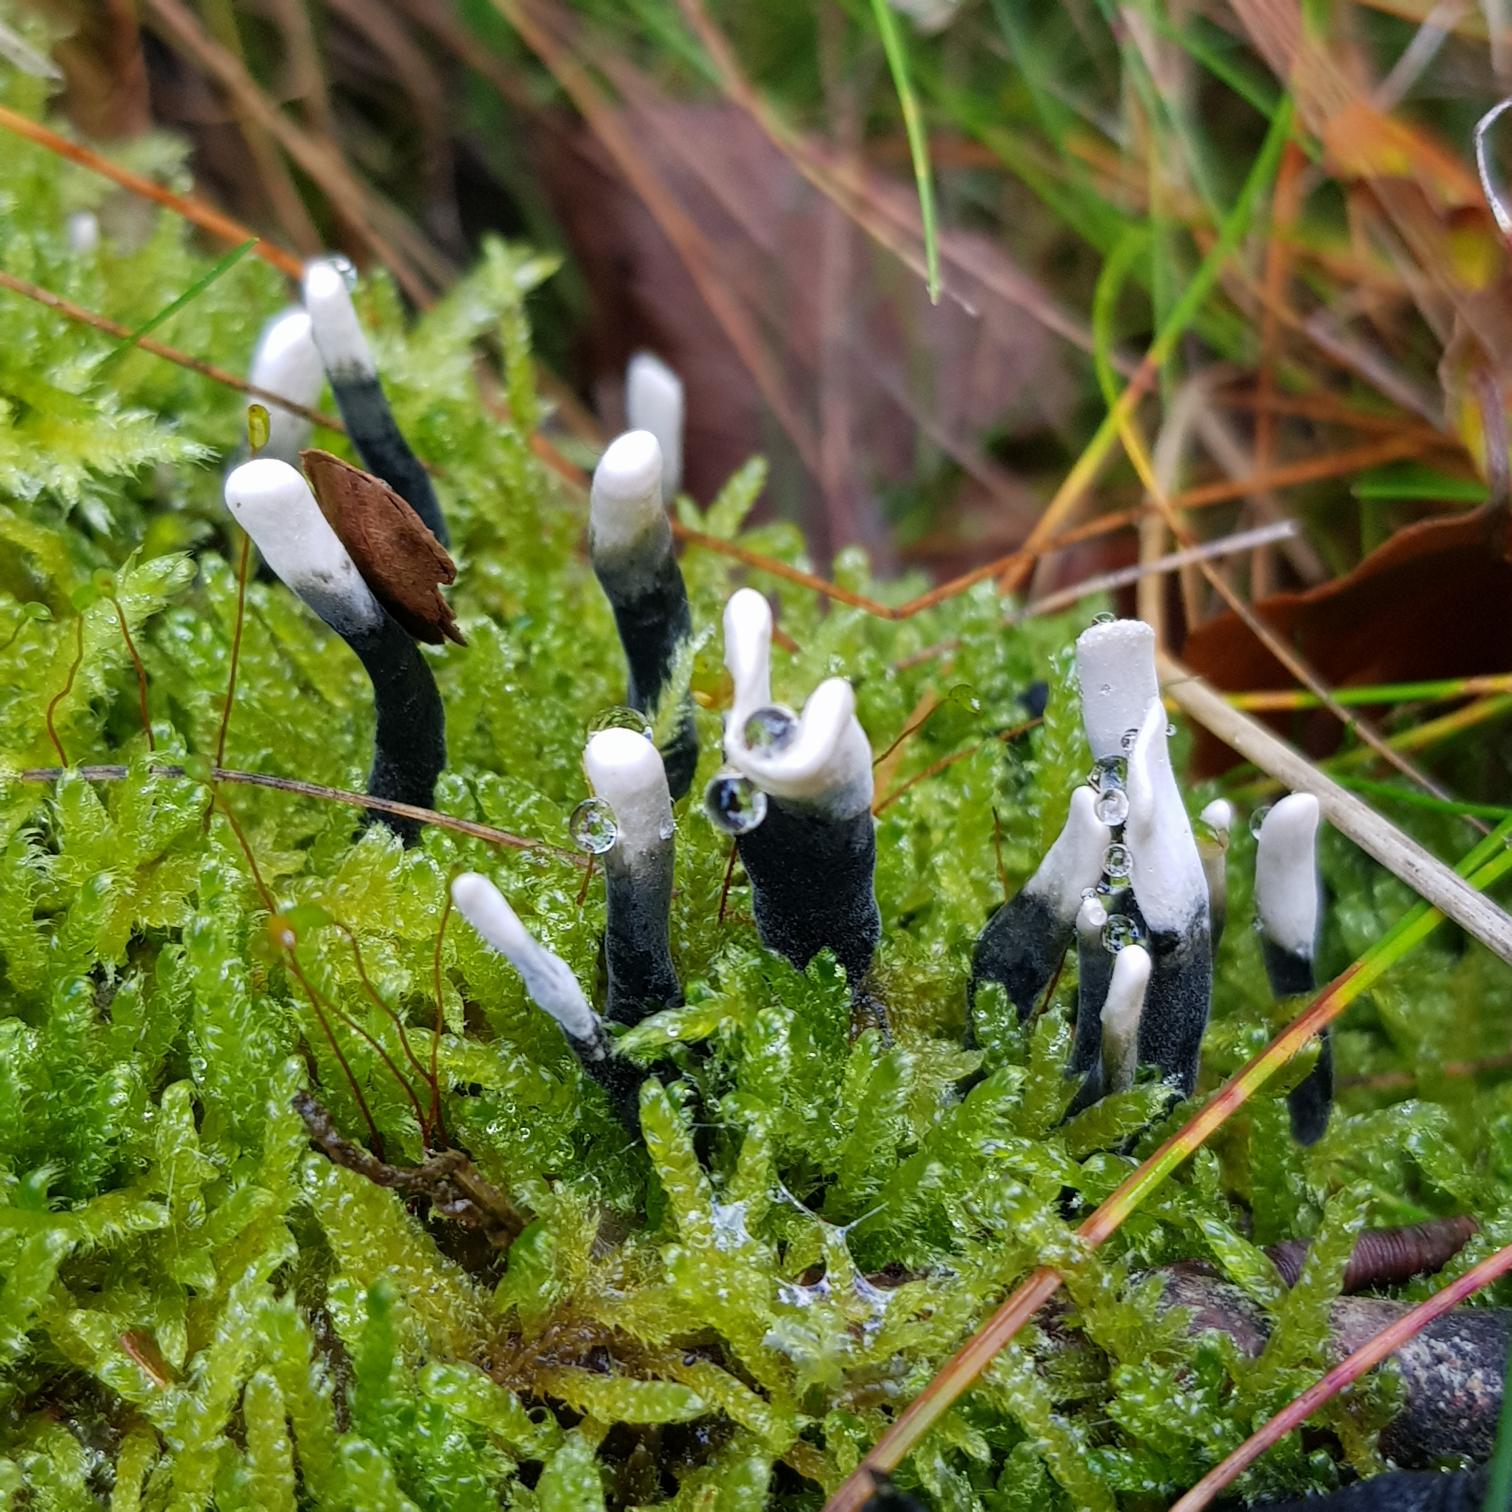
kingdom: Fungi
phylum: Ascomycota
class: Sordariomycetes
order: Xylariales
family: Xylariaceae
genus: Xylaria
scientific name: Xylaria hypoxylon
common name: Grenet stødsvamp
